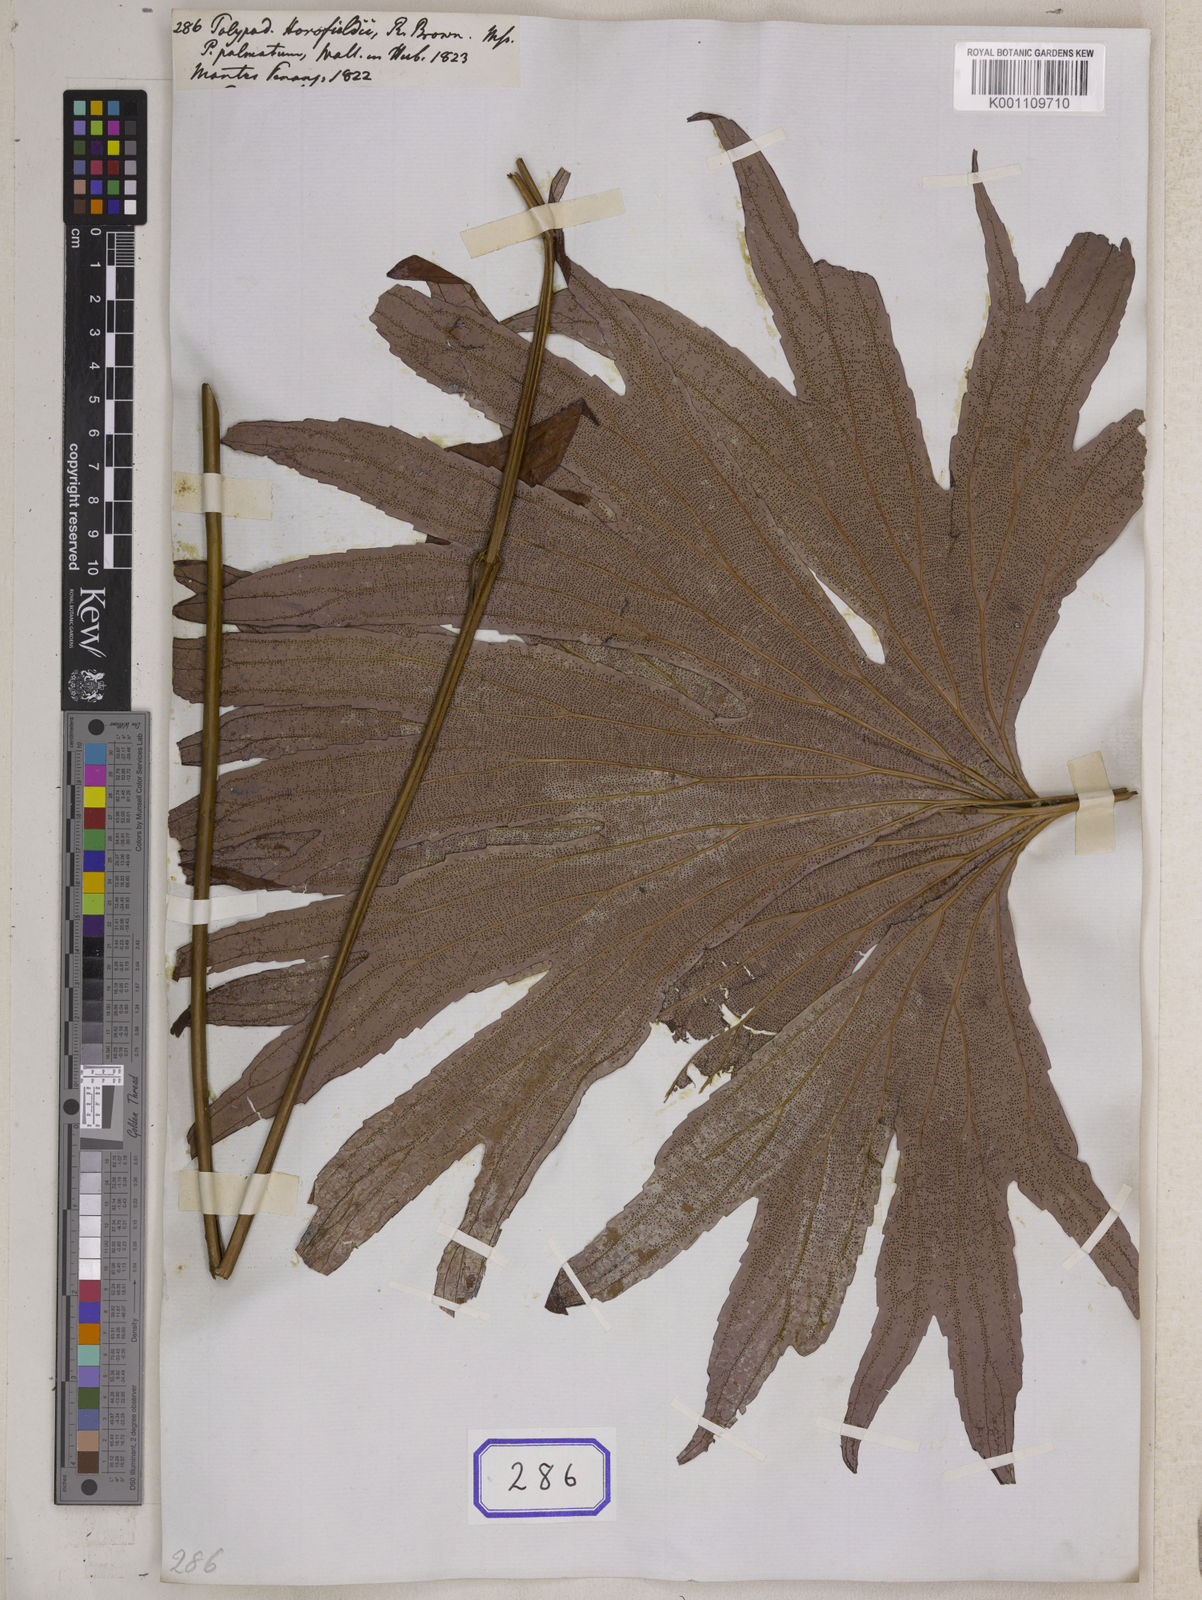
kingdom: Plantae
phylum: Tracheophyta
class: Polypodiopsida
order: Gleicheniales
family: Dipteridaceae
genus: Dipteris
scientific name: Dipteris conjugata
